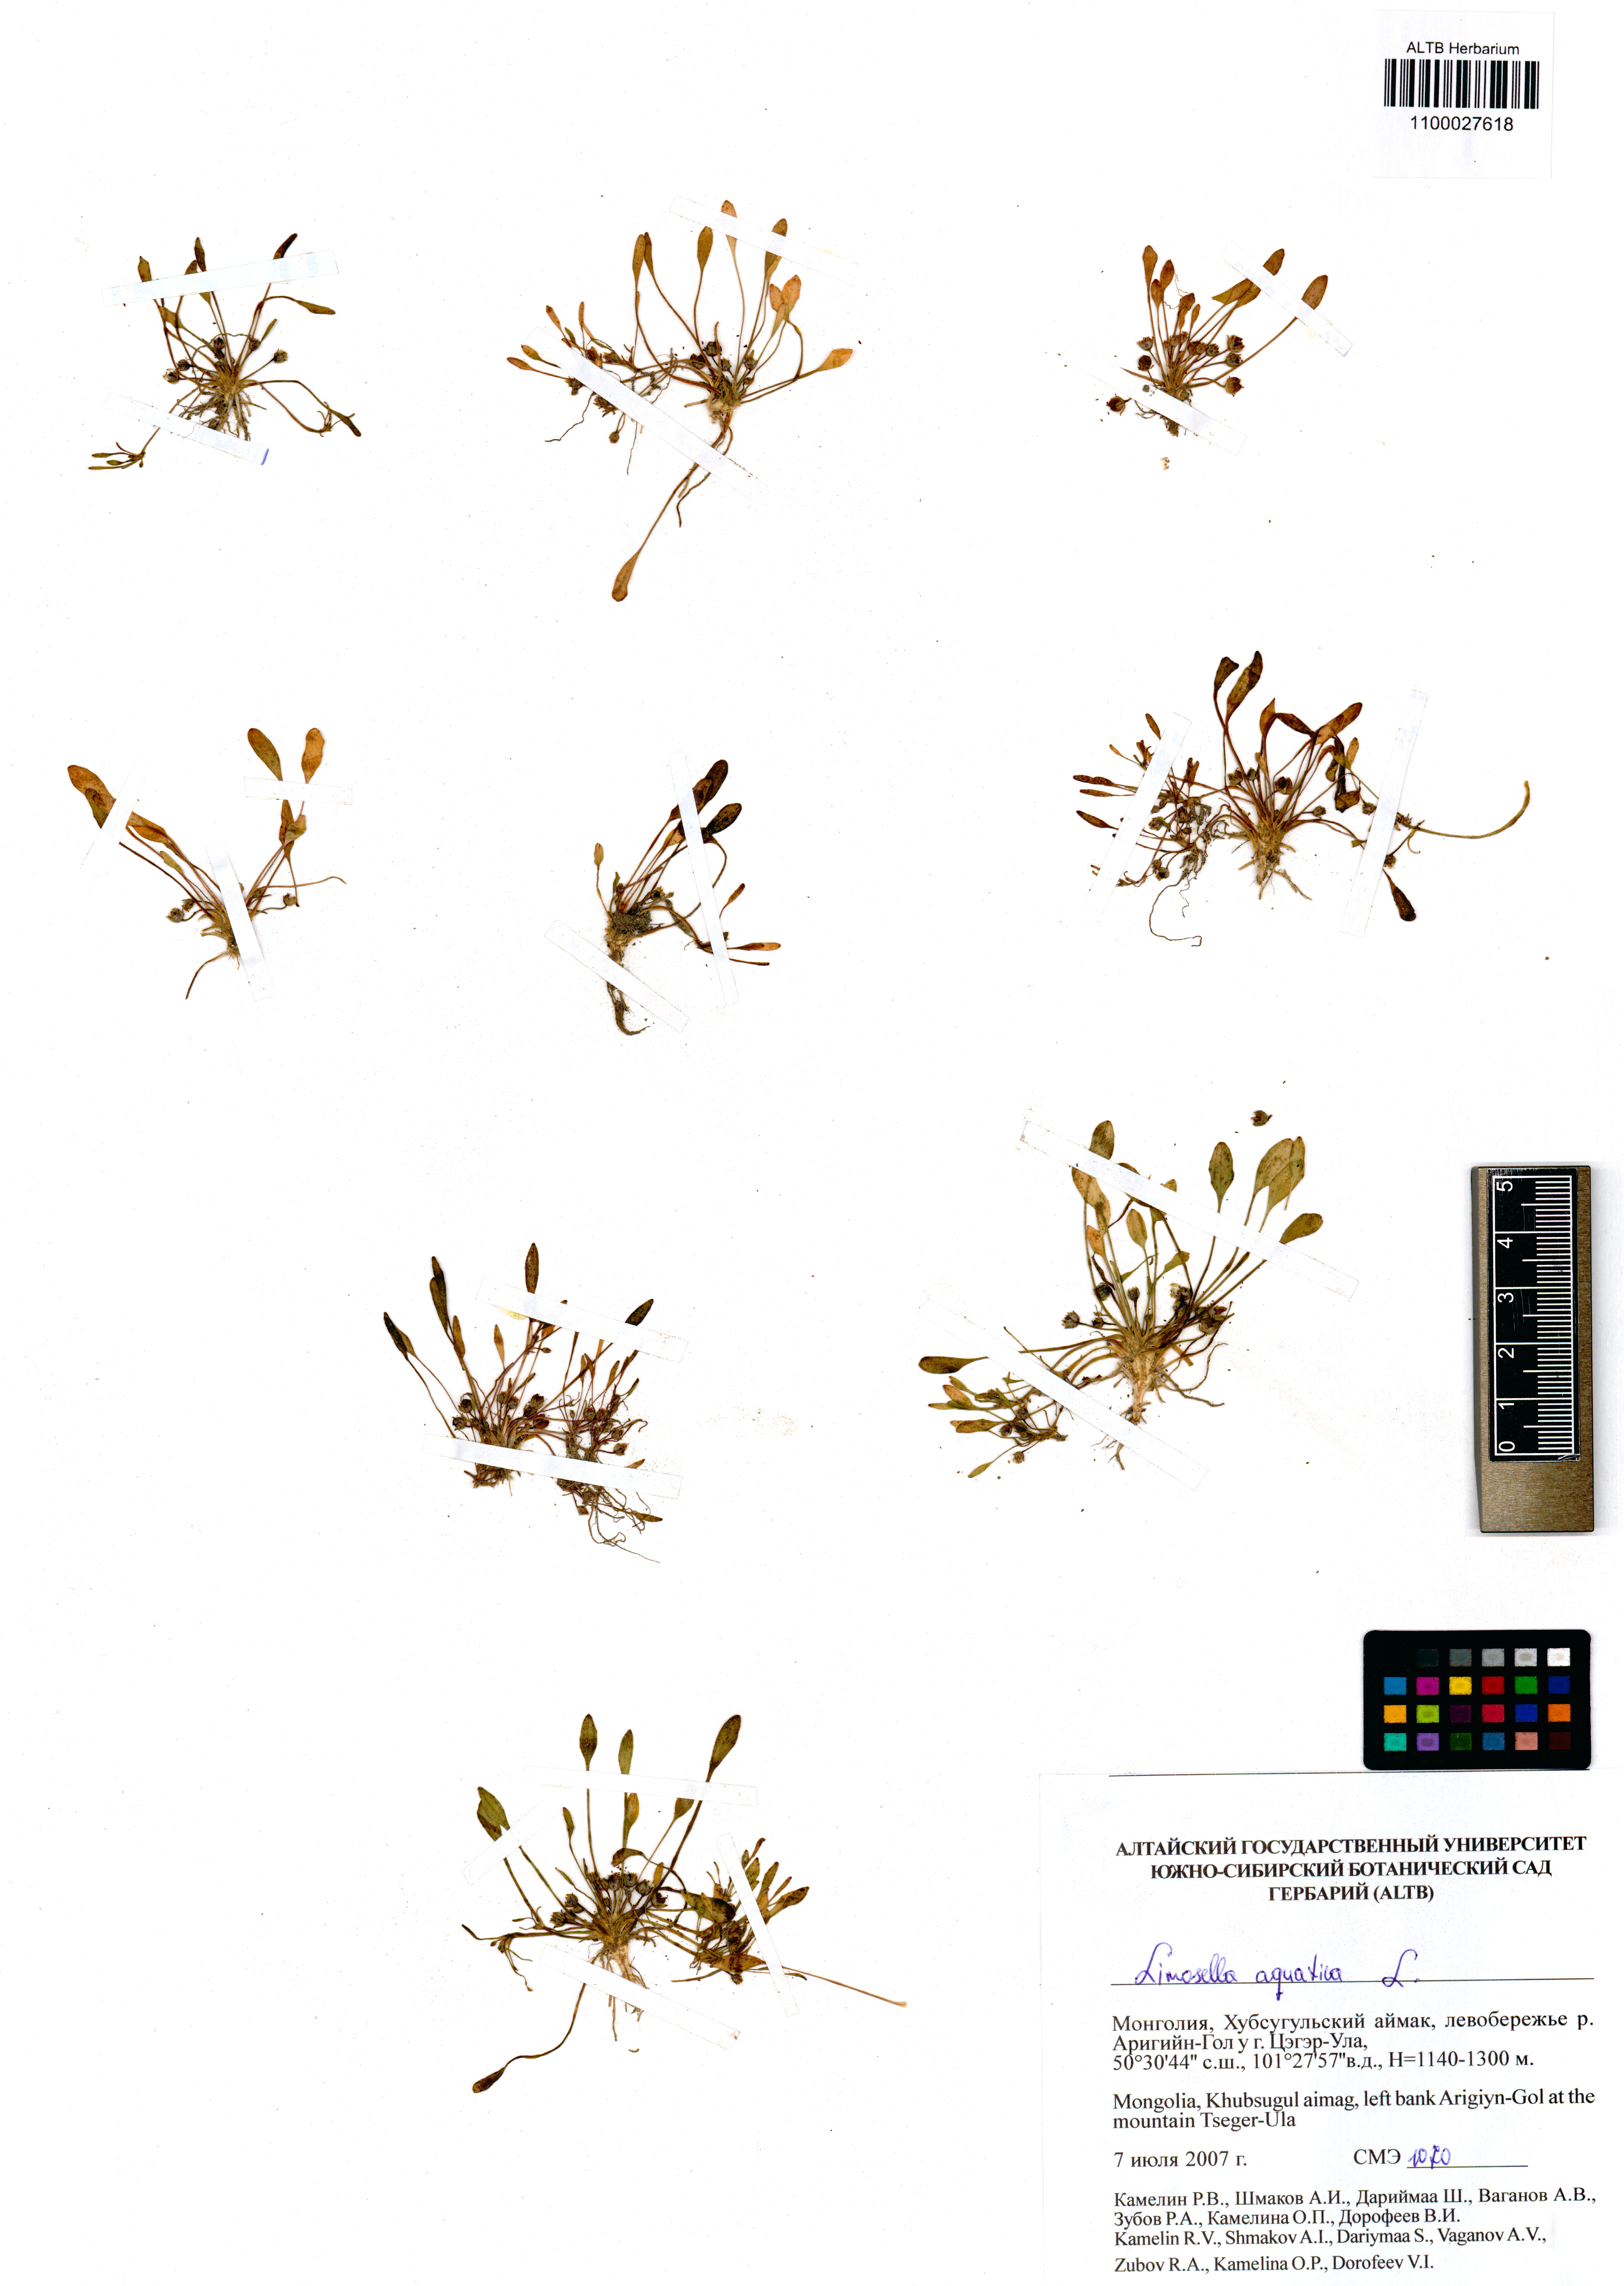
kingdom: Plantae
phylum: Tracheophyta
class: Magnoliopsida
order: Lamiales
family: Scrophulariaceae
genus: Limosella
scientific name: Limosella aquatica
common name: Mudwort
